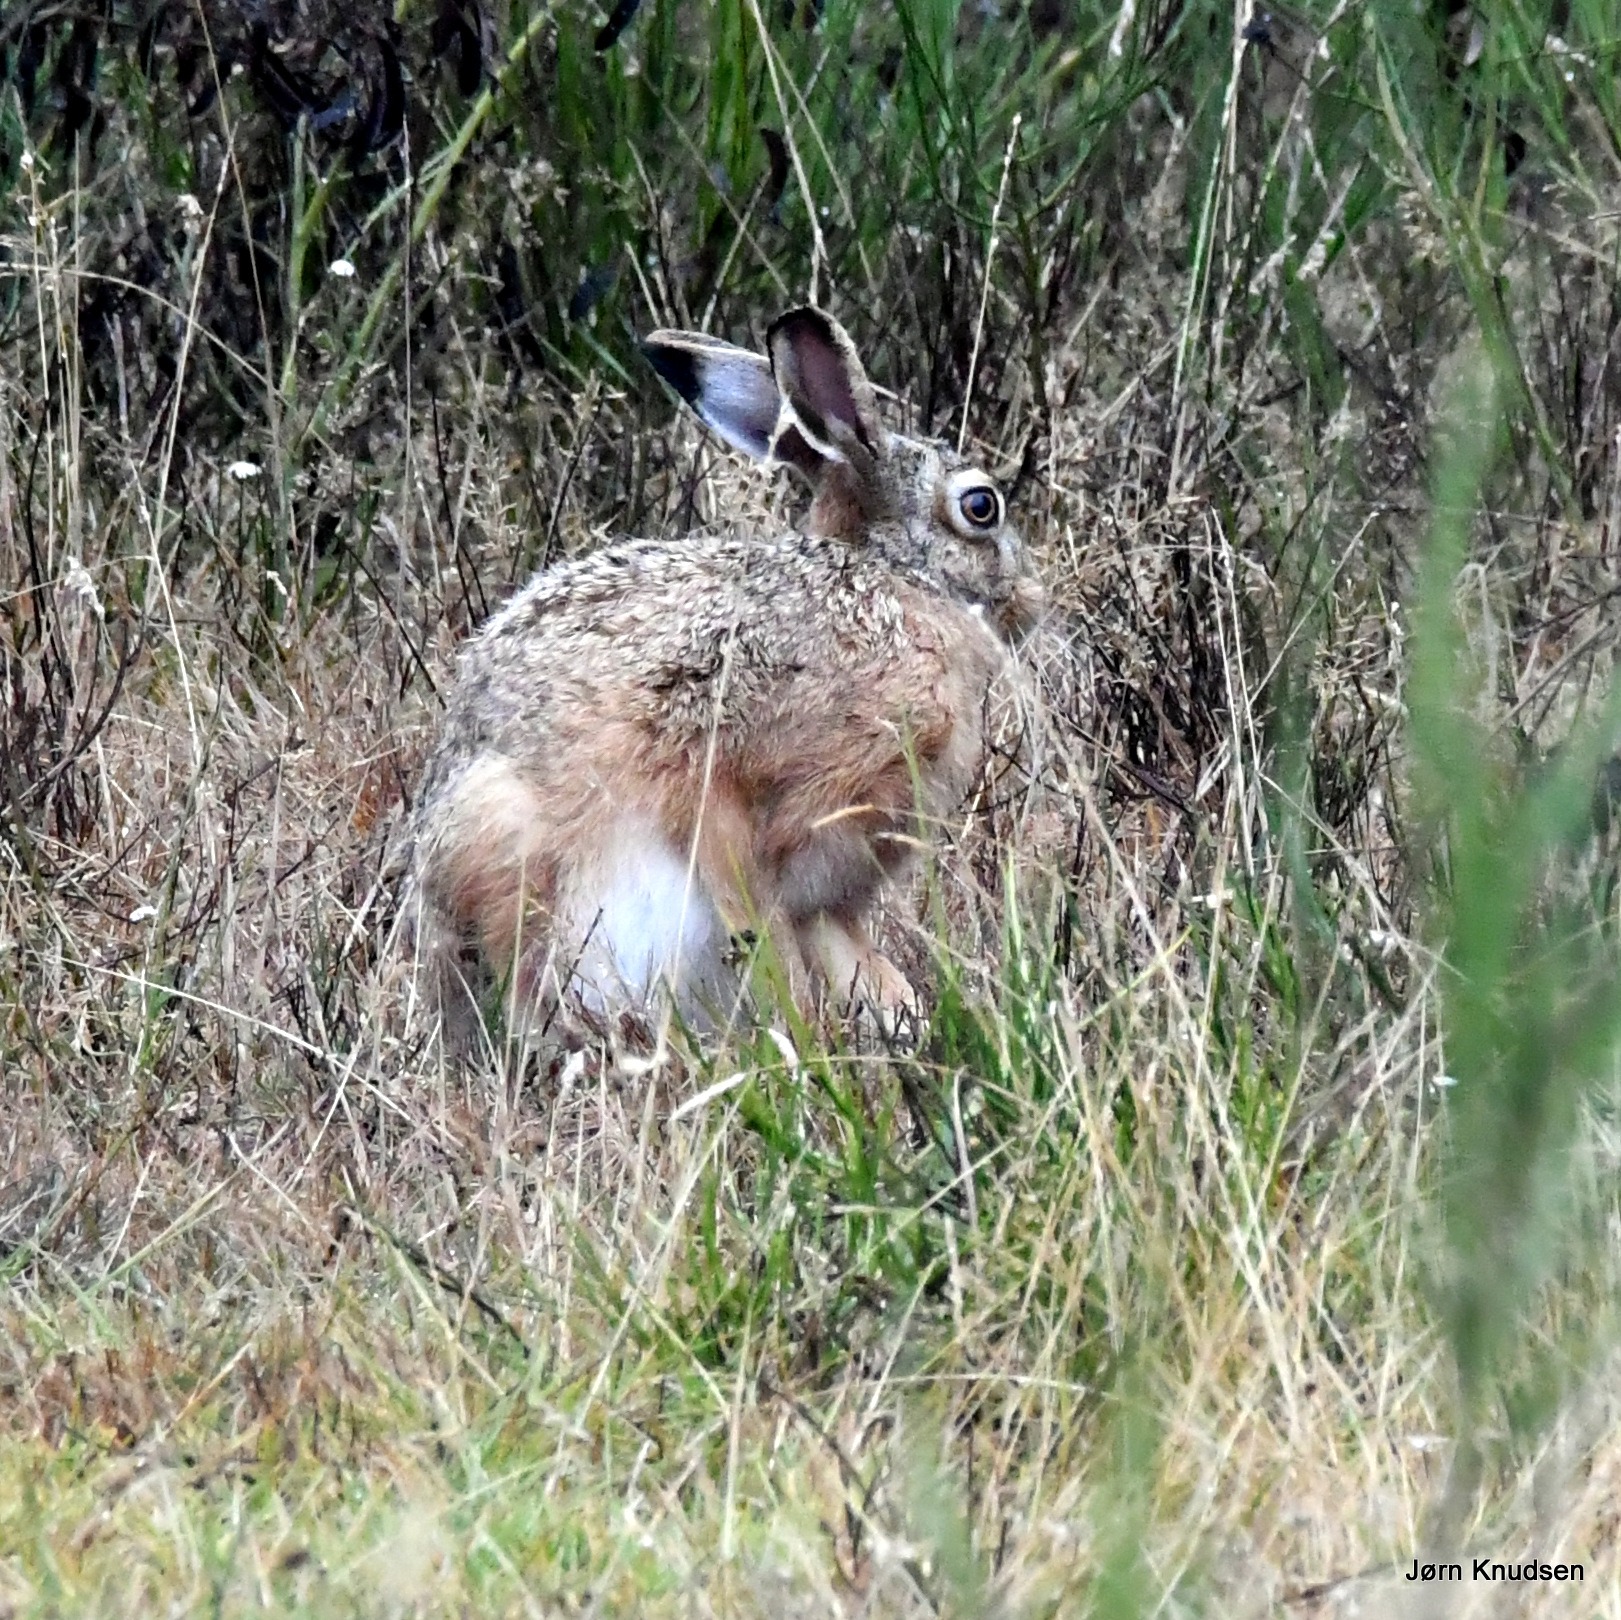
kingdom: Animalia
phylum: Chordata
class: Mammalia
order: Lagomorpha
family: Leporidae
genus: Lepus
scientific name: Lepus europaeus
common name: Hare
